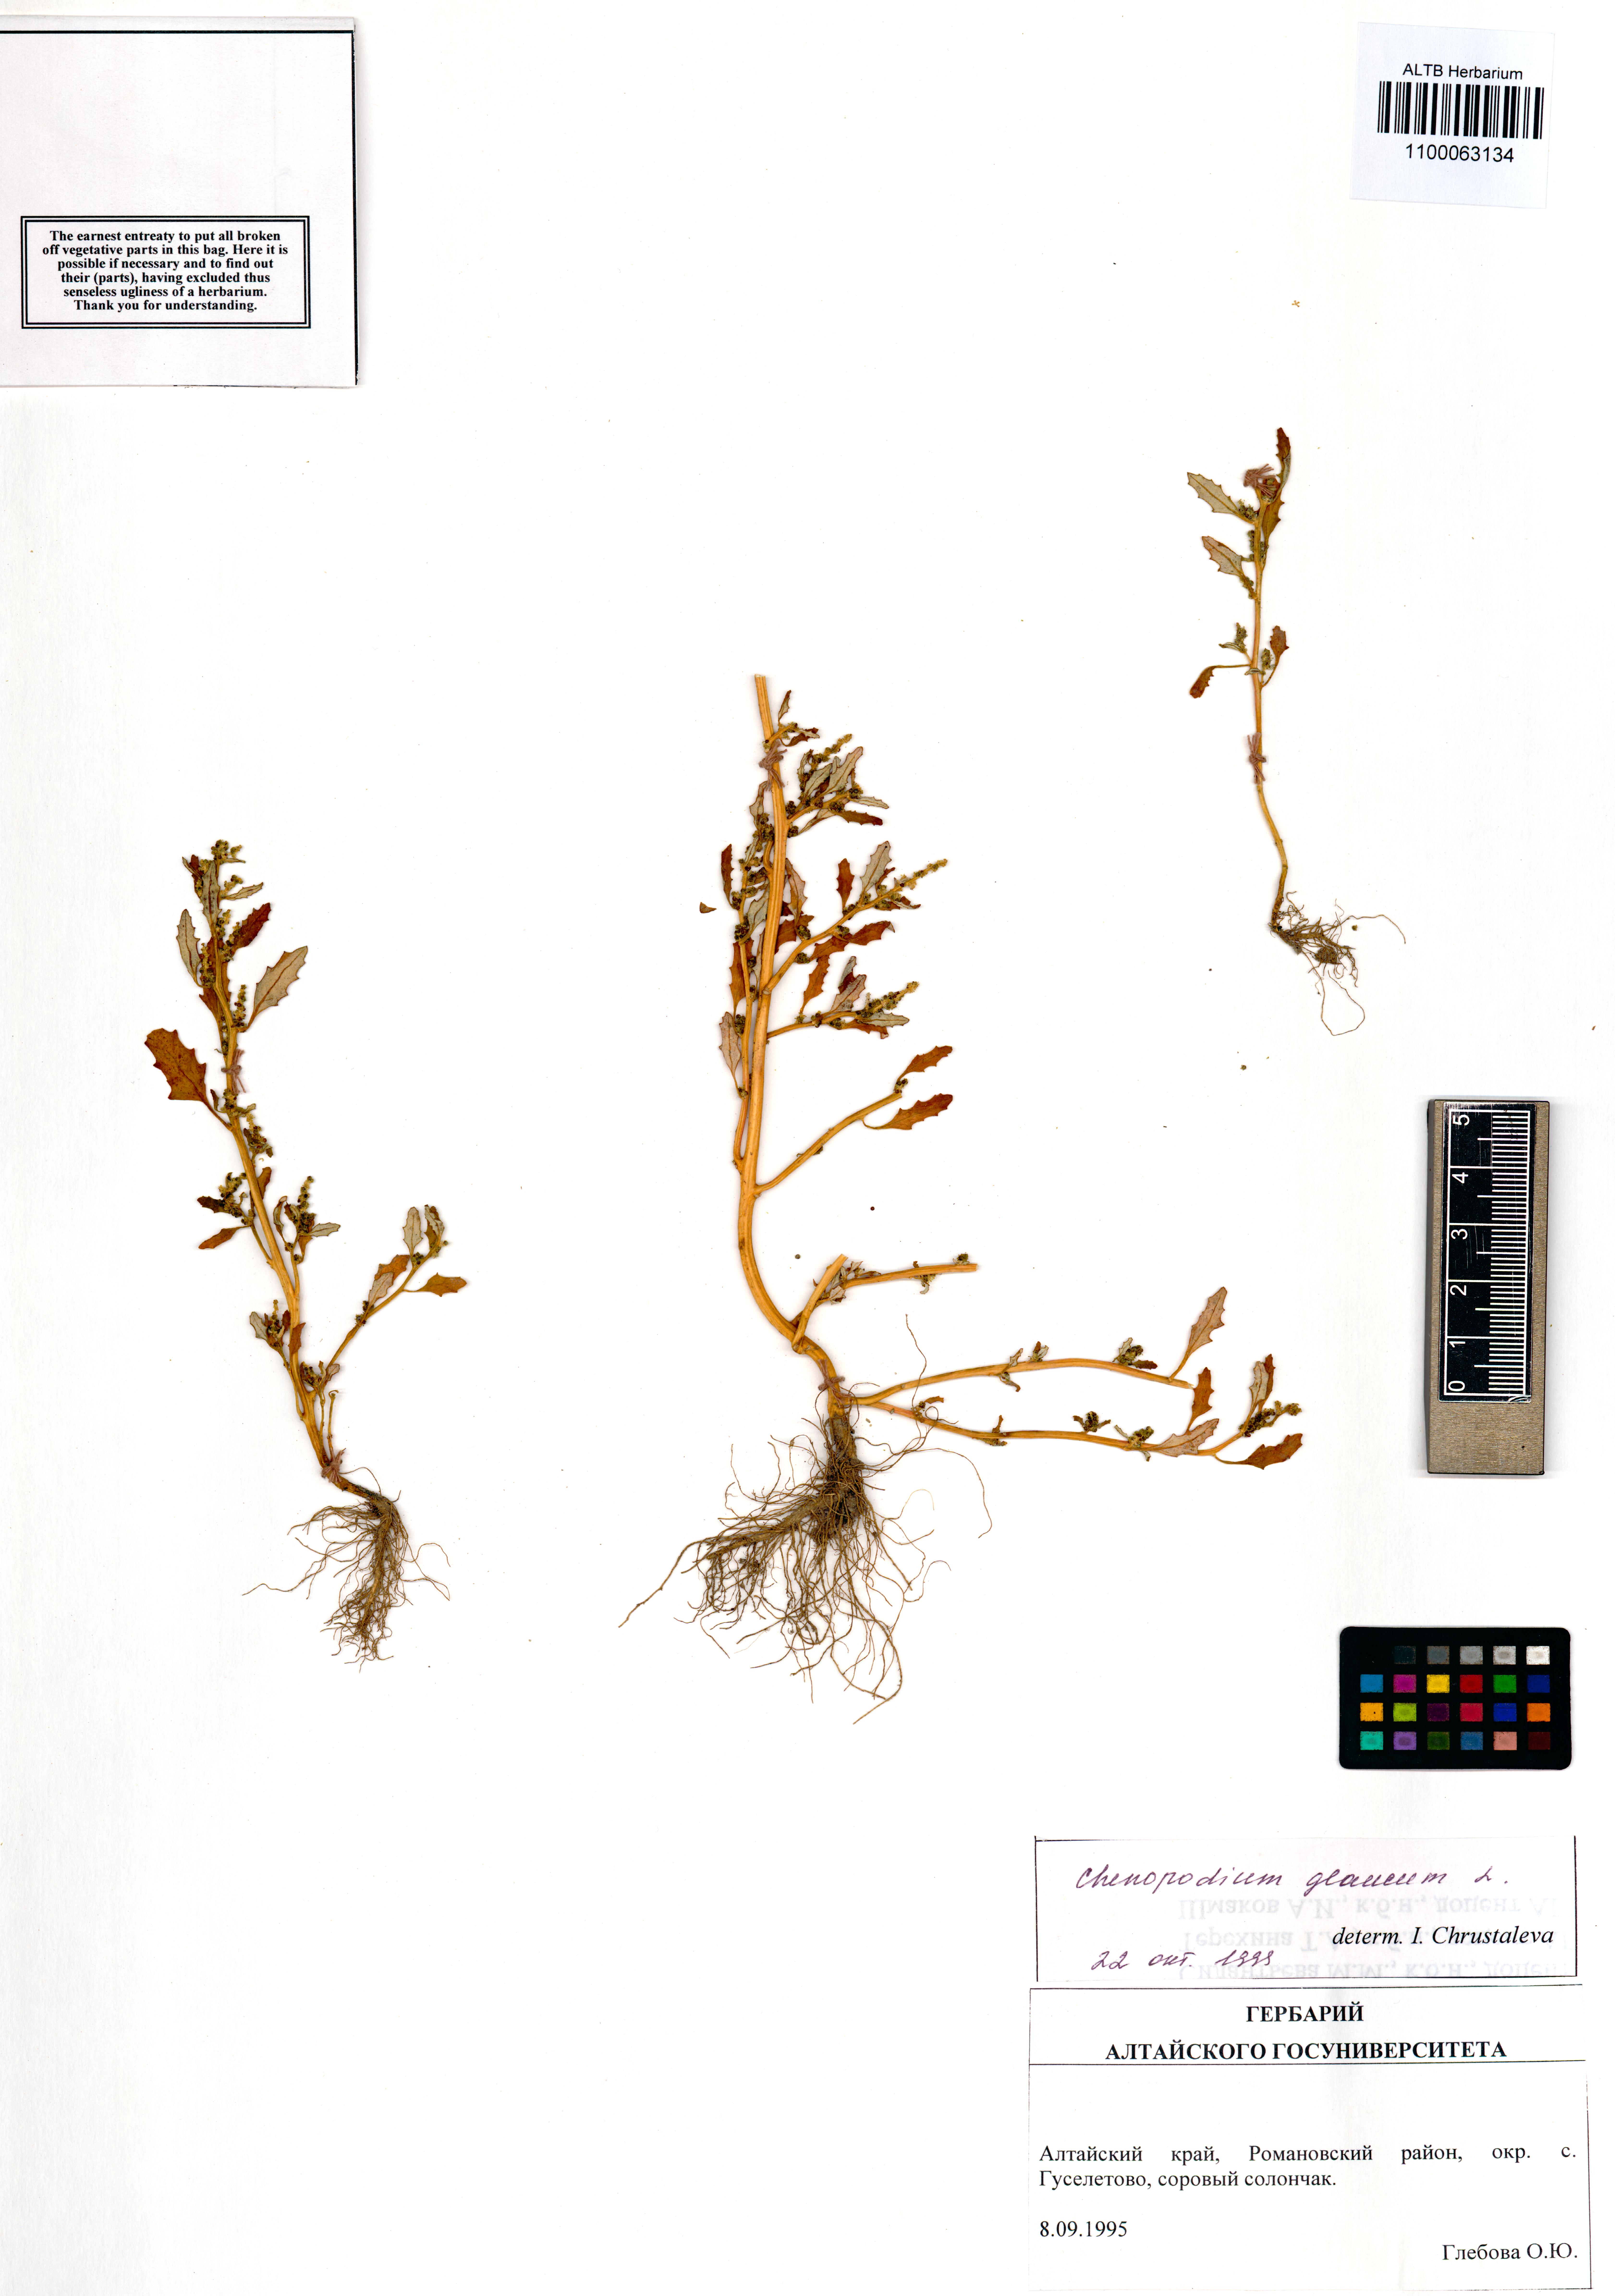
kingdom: Plantae
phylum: Tracheophyta
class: Magnoliopsida
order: Caryophyllales
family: Amaranthaceae
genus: Oxybasis
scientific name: Oxybasis glauca
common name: Glaucous goosefoot
